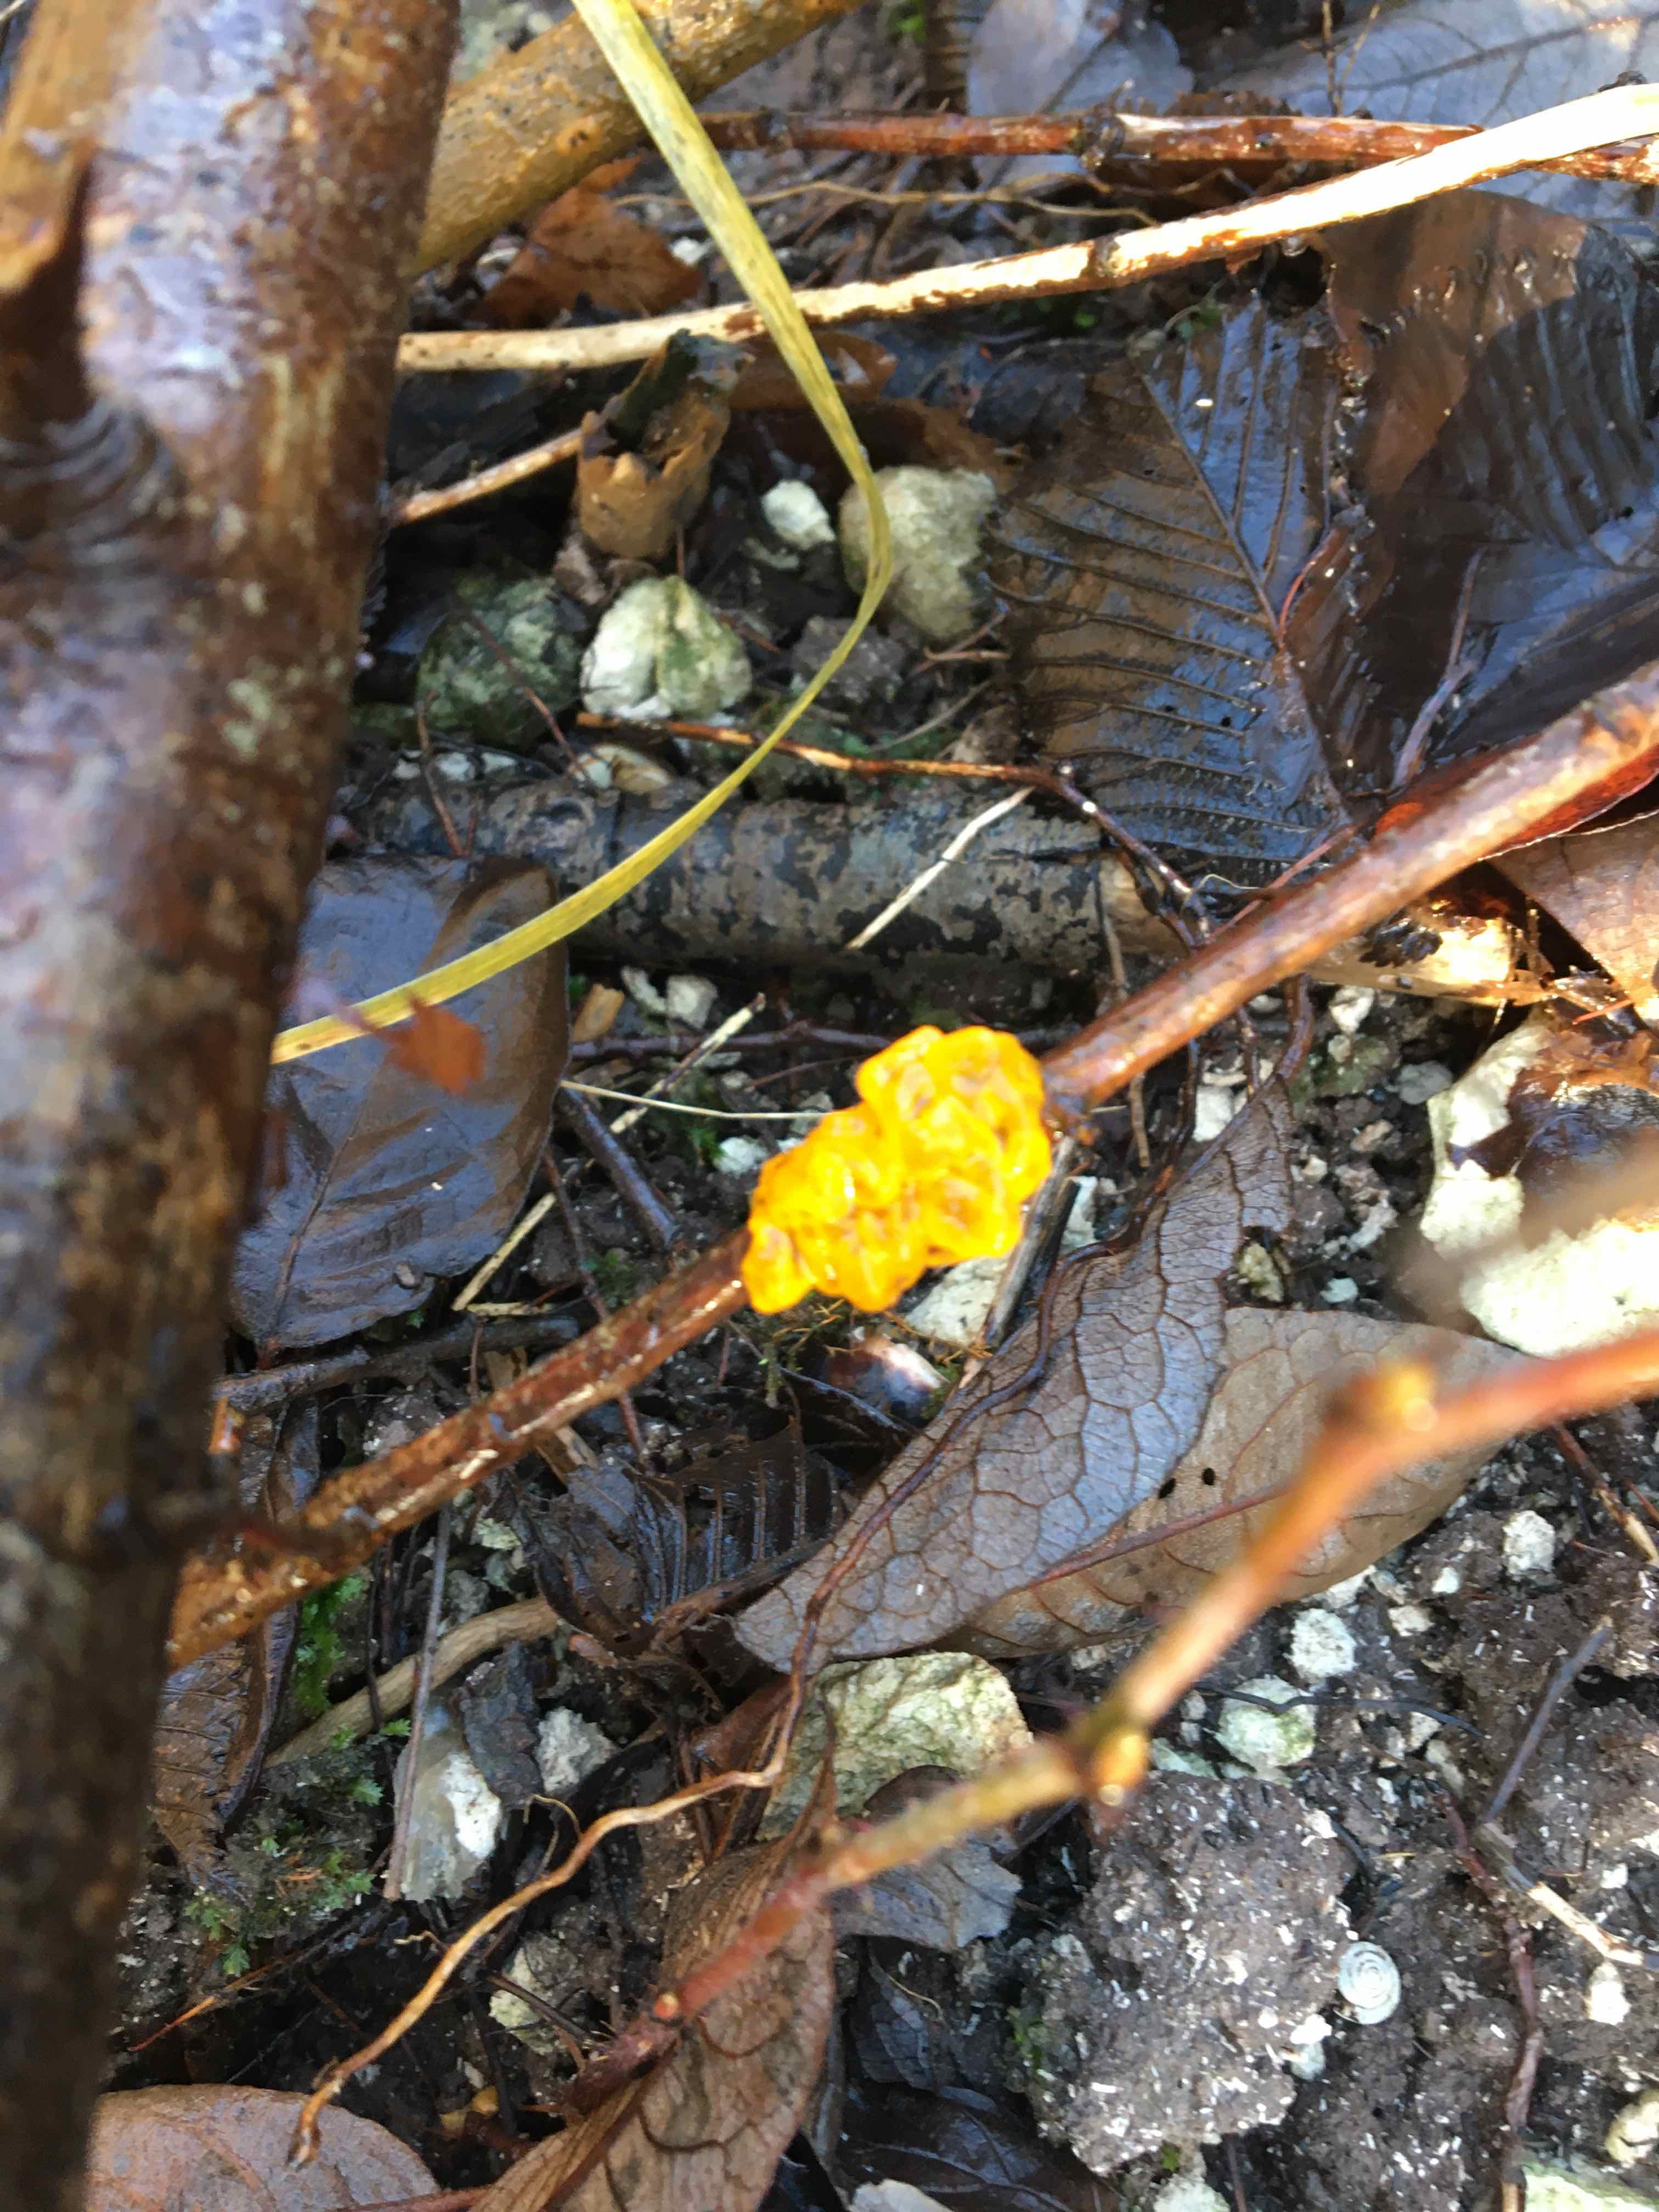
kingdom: Fungi
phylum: Basidiomycota
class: Tremellomycetes
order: Tremellales
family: Tremellaceae
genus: Tremella
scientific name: Tremella mesenterica
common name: gul bævresvamp
